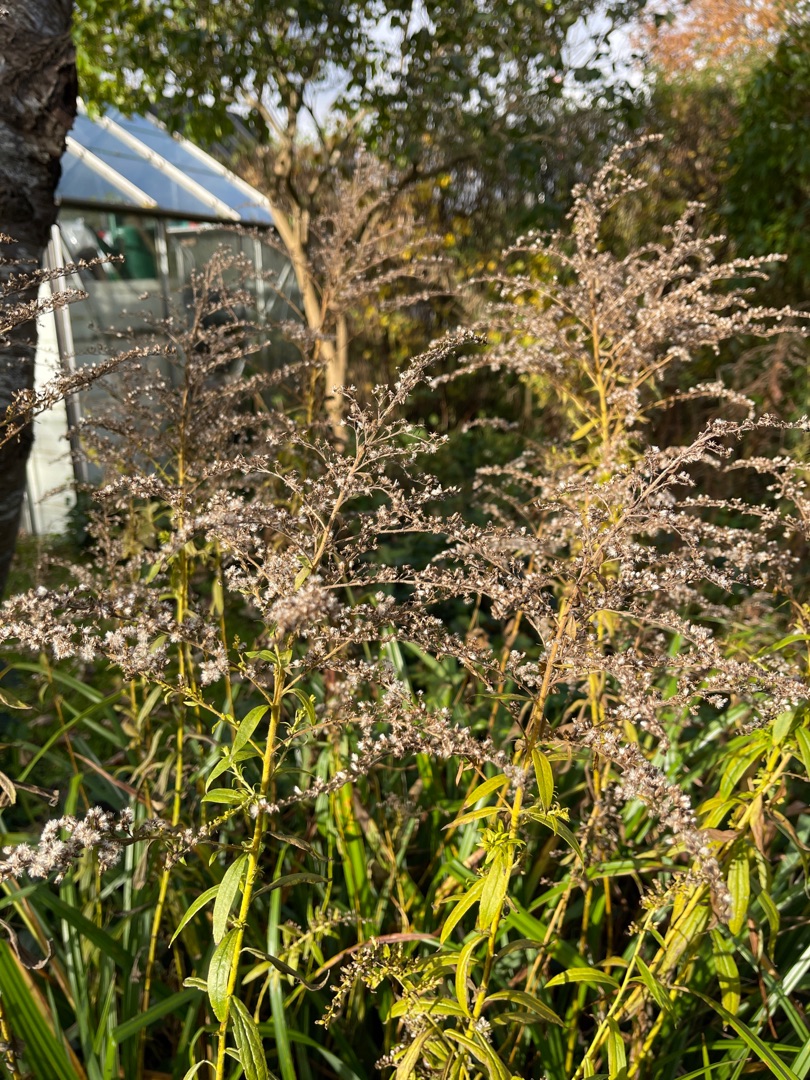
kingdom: Plantae
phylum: Tracheophyta
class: Magnoliopsida
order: Asterales
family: Asteraceae
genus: Solidago
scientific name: Solidago canadensis
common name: Kanadisk gyldenris
